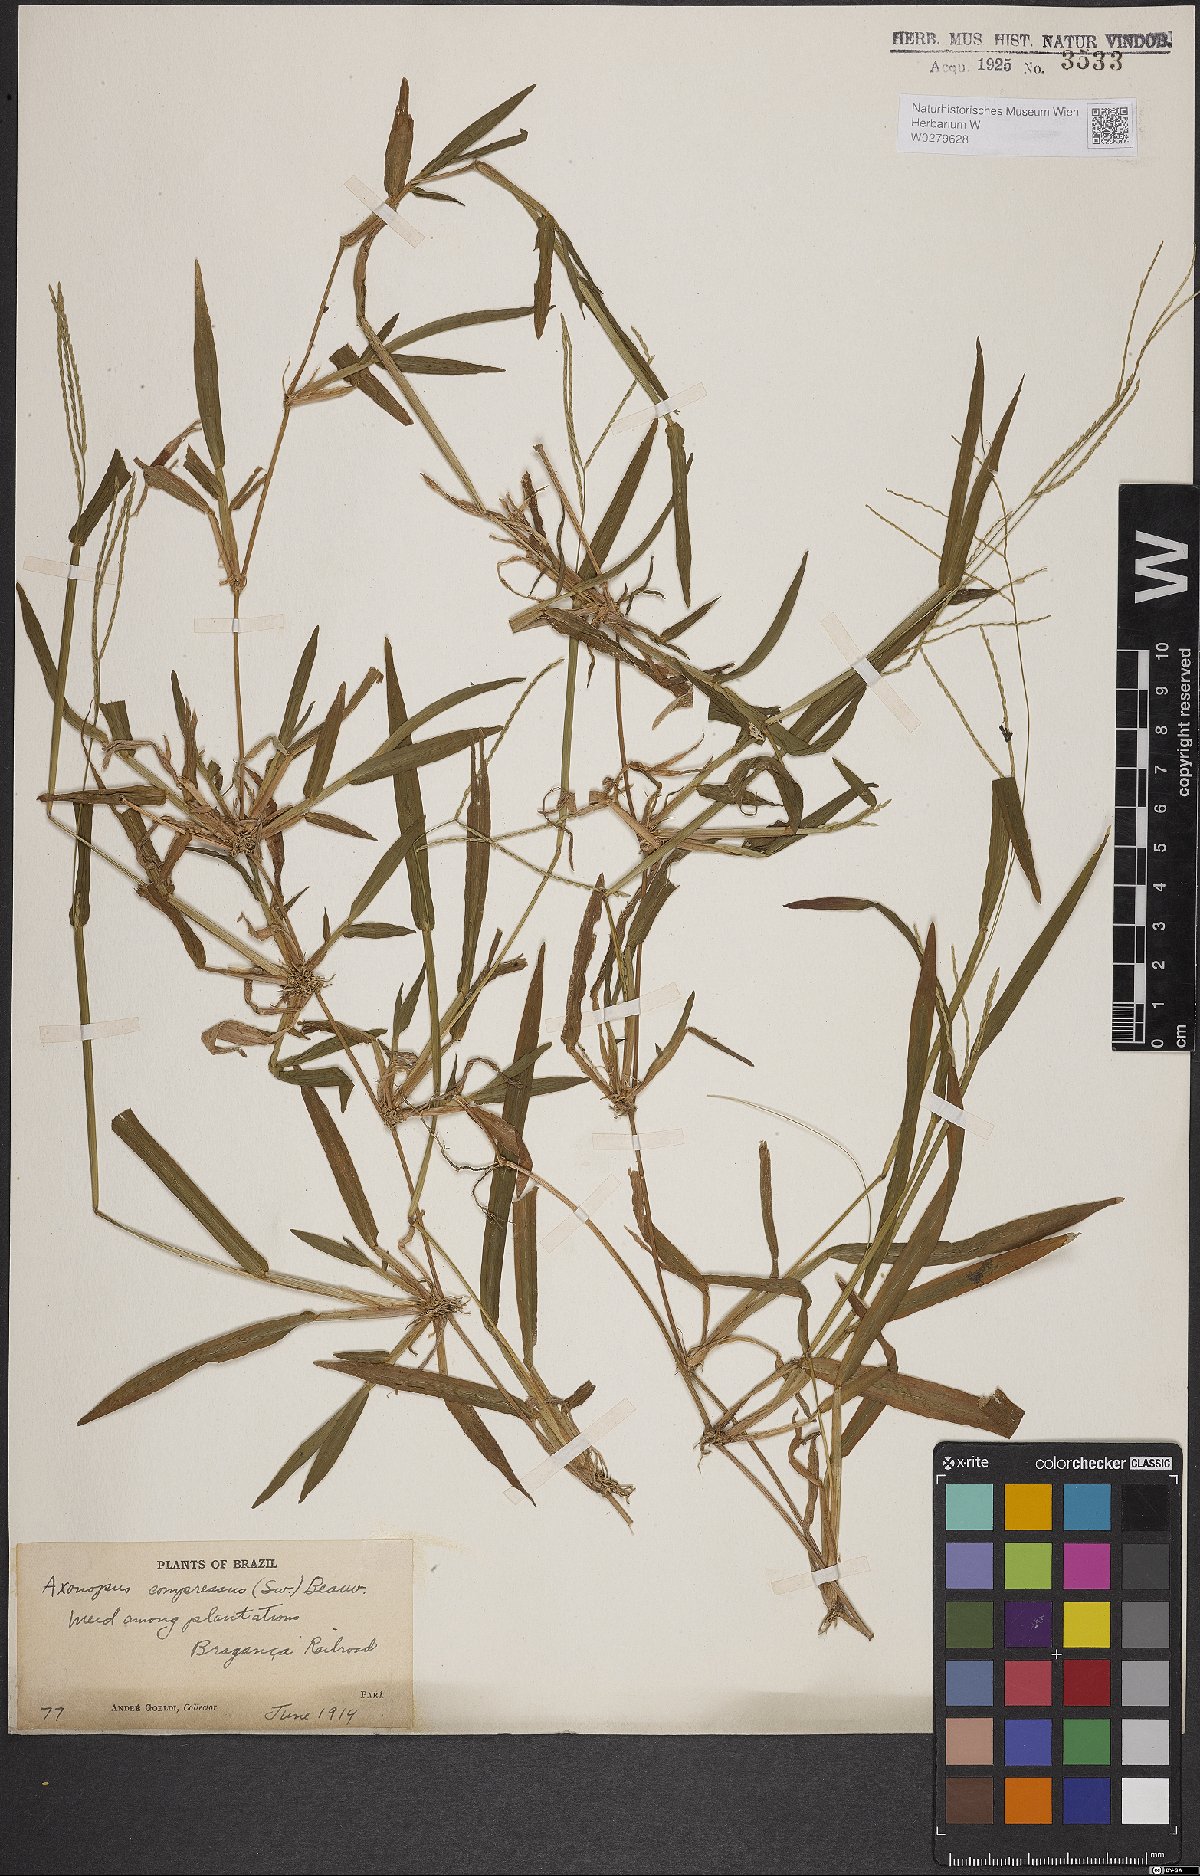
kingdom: Plantae
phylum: Tracheophyta
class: Liliopsida
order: Poales
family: Poaceae
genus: Axonopus
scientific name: Axonopus compressus
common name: American carpet grass
